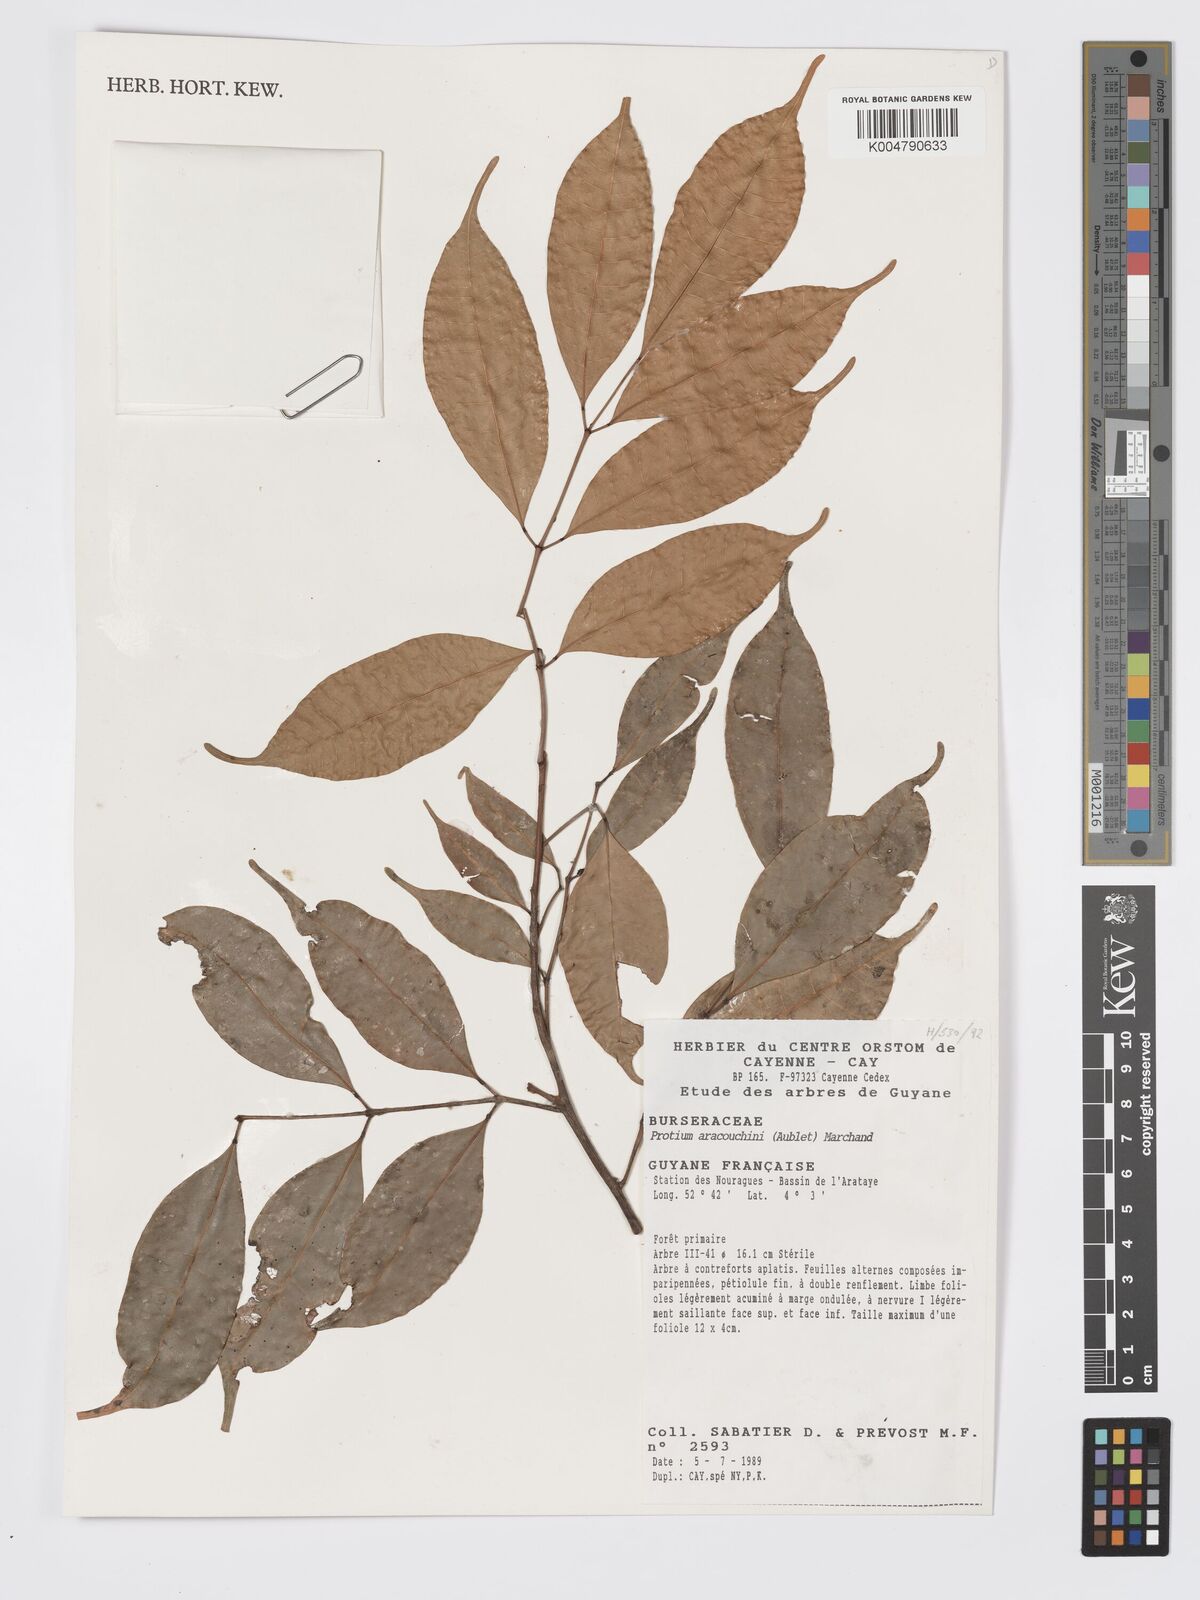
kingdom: Plantae
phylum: Tracheophyta
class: Magnoliopsida
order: Sapindales
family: Burseraceae
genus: Protium
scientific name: Protium aracouchini
